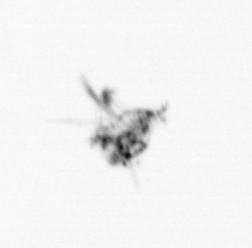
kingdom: Animalia
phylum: Arthropoda
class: Maxillopoda
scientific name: Maxillopoda
